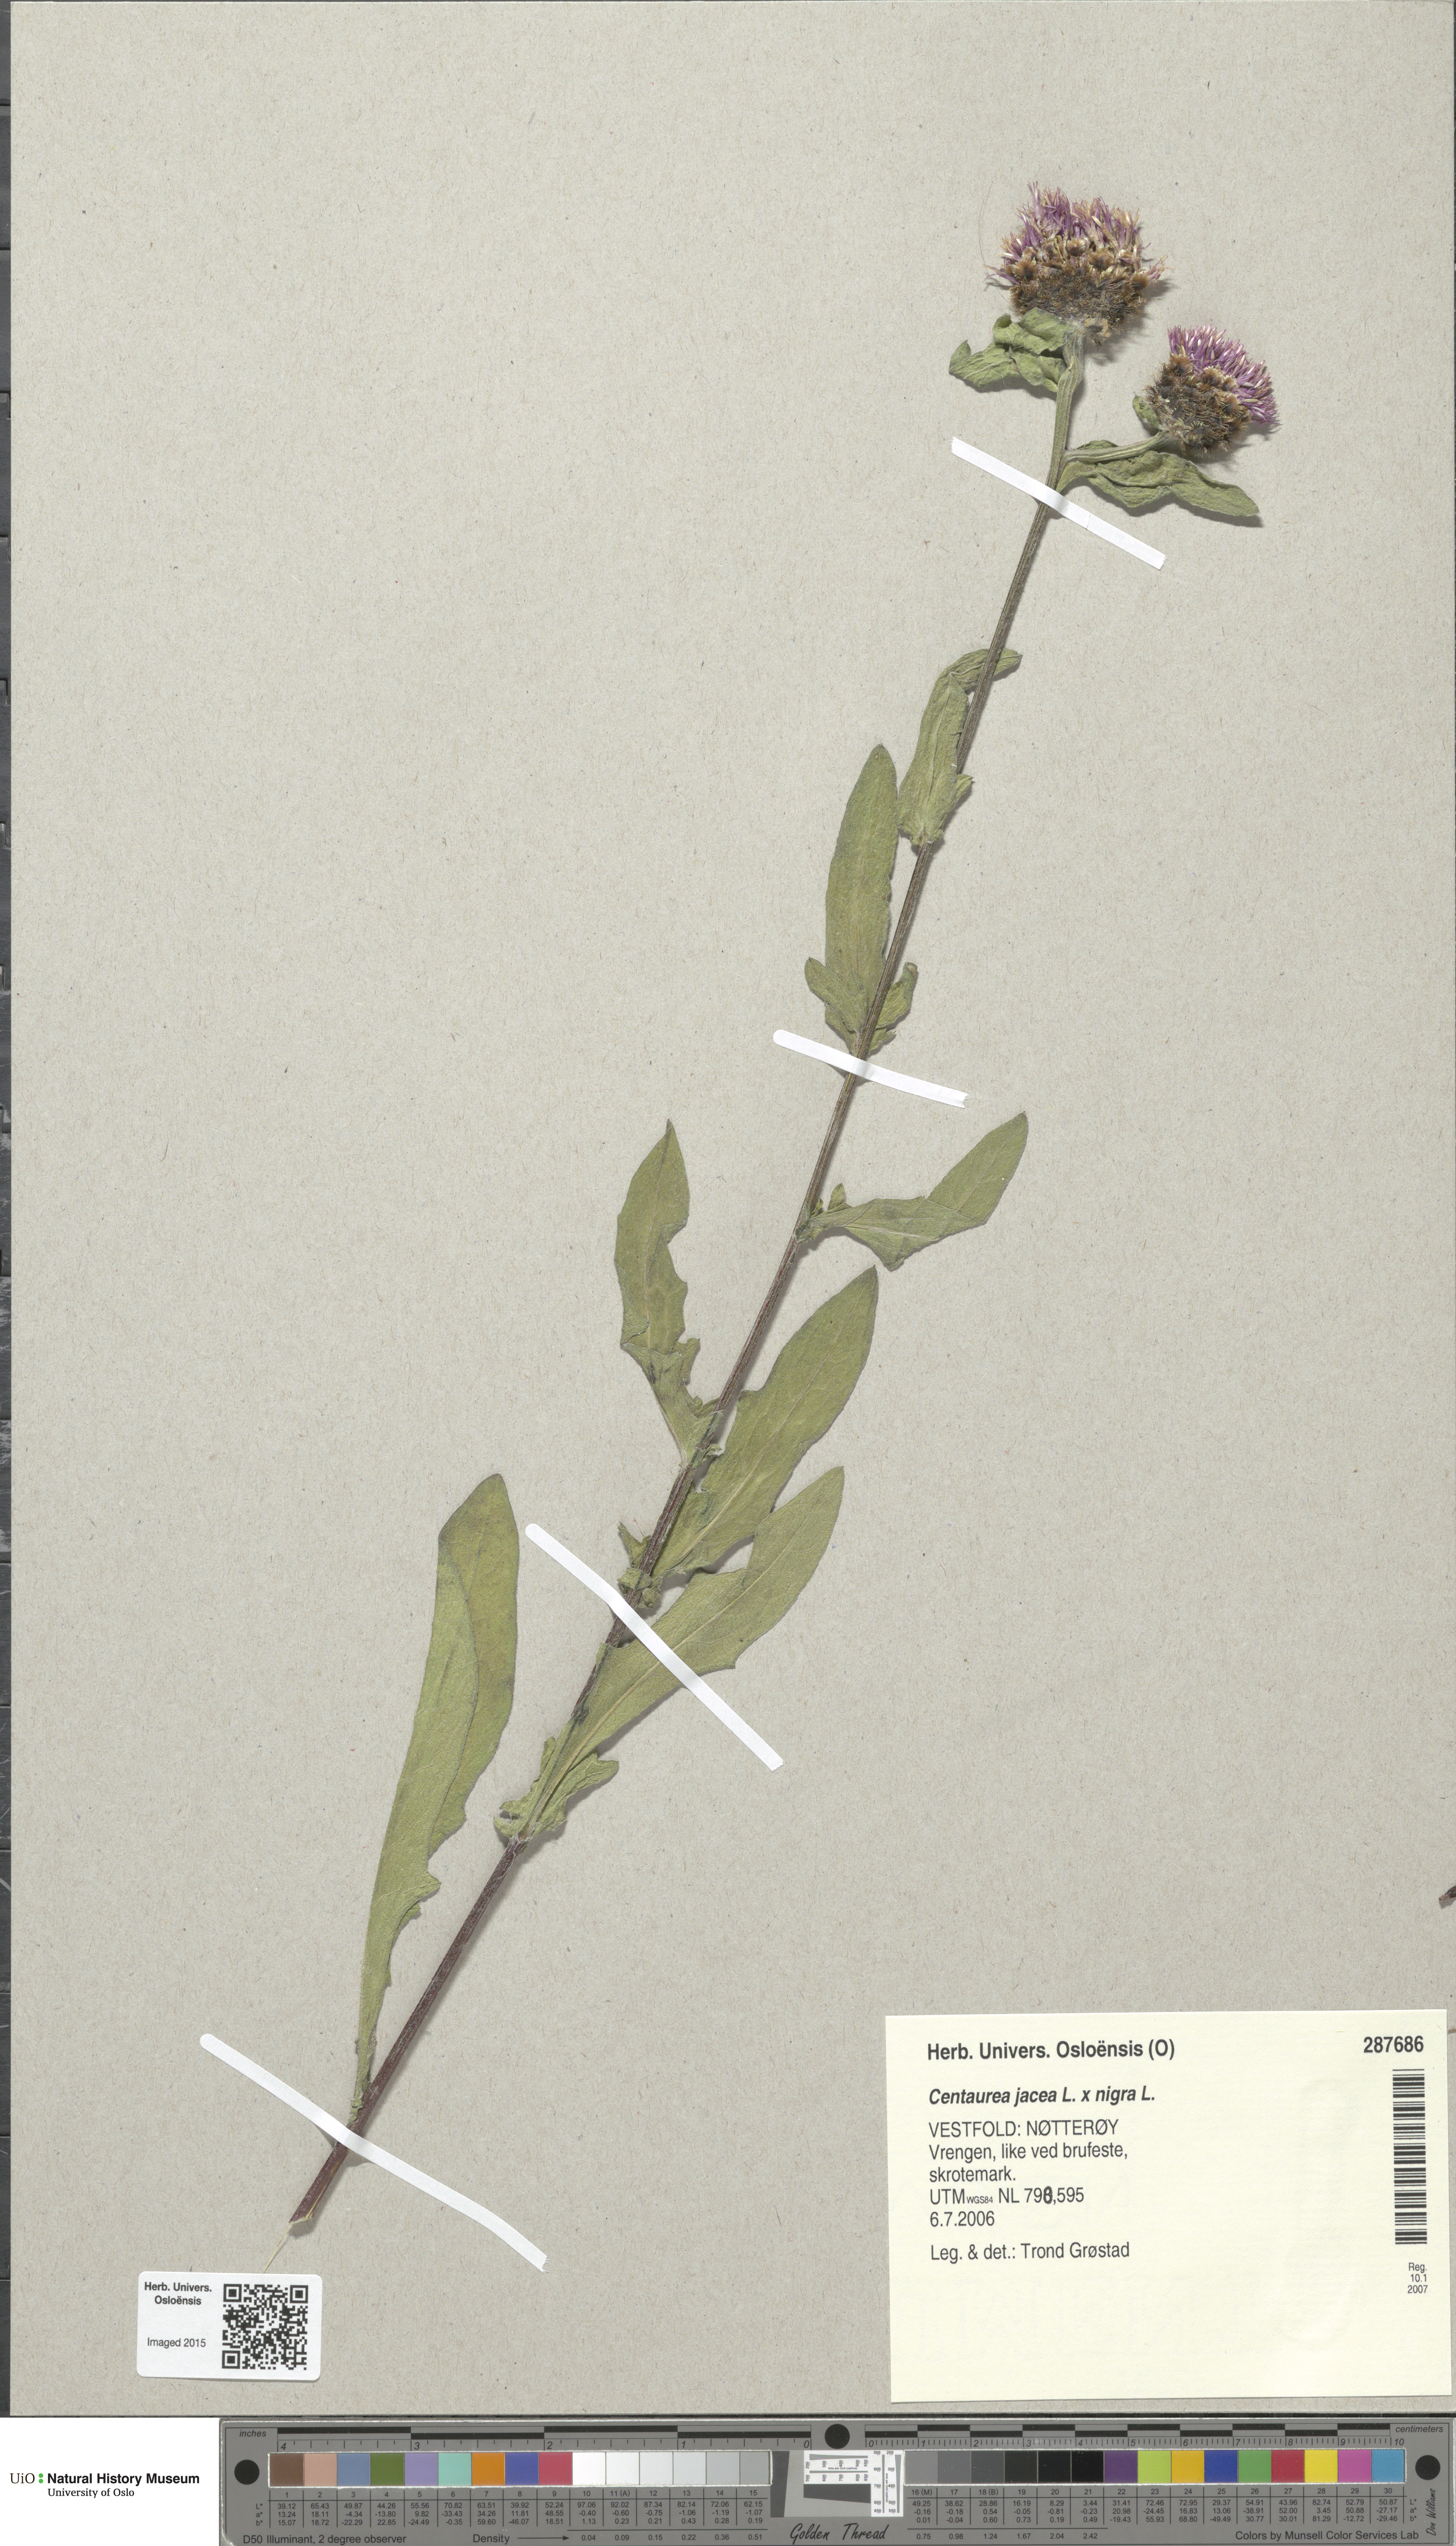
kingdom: Plantae
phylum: Tracheophyta
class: Magnoliopsida
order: Asterales
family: Asteraceae
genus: Centaurea
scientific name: Centaurea
